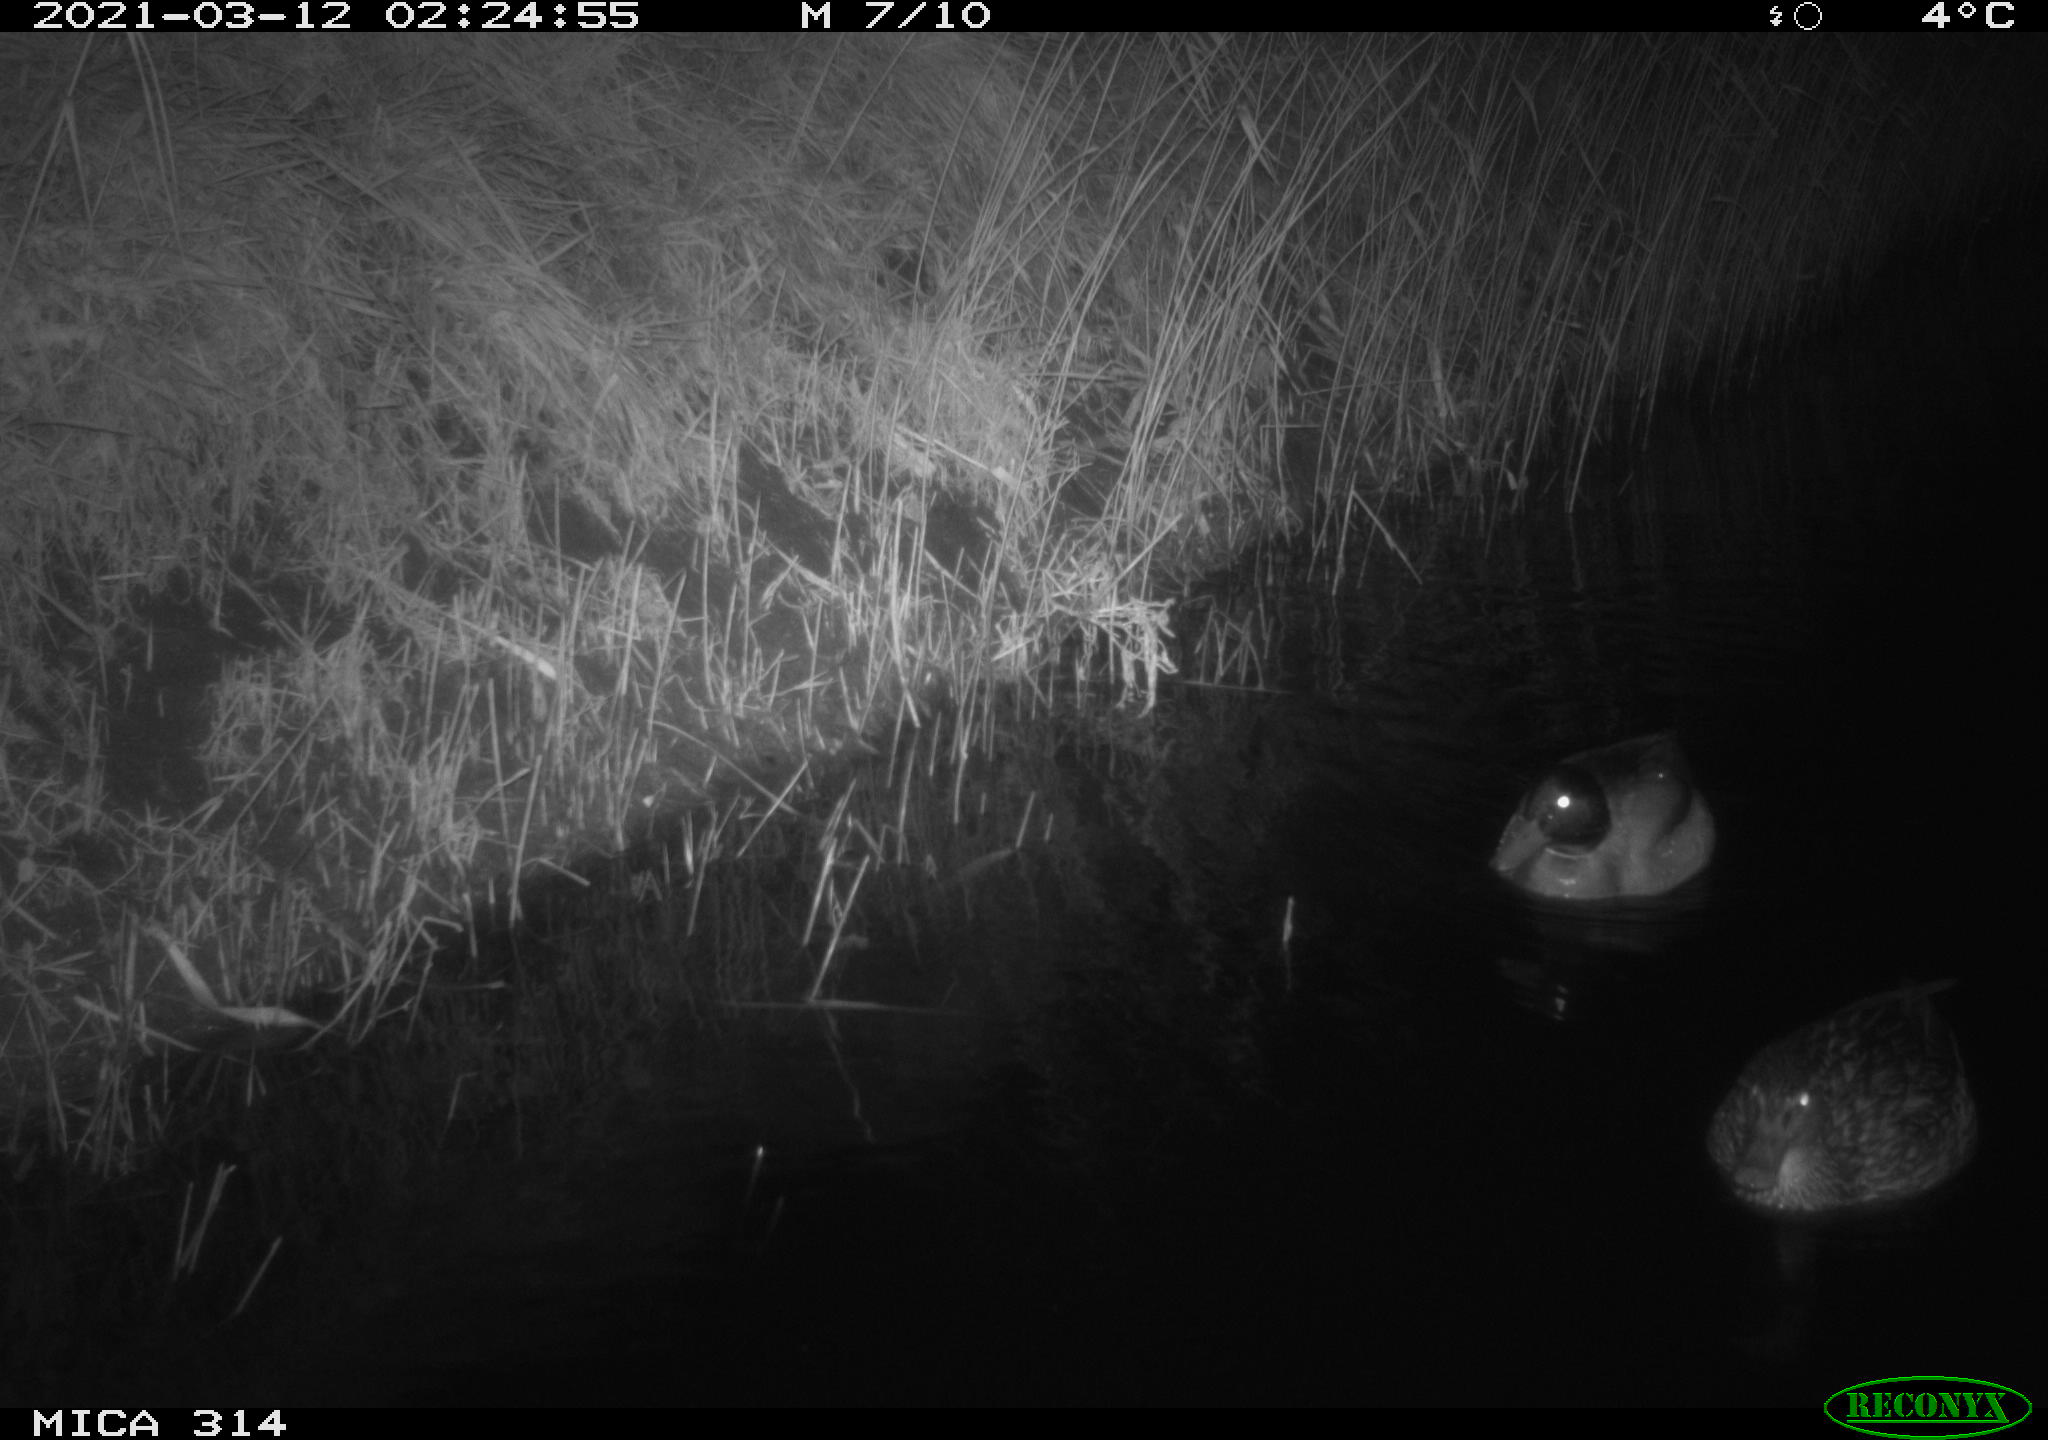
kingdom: Animalia
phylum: Chordata
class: Aves
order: Anseriformes
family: Anatidae
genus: Anas
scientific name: Anas platyrhynchos
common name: Mallard
